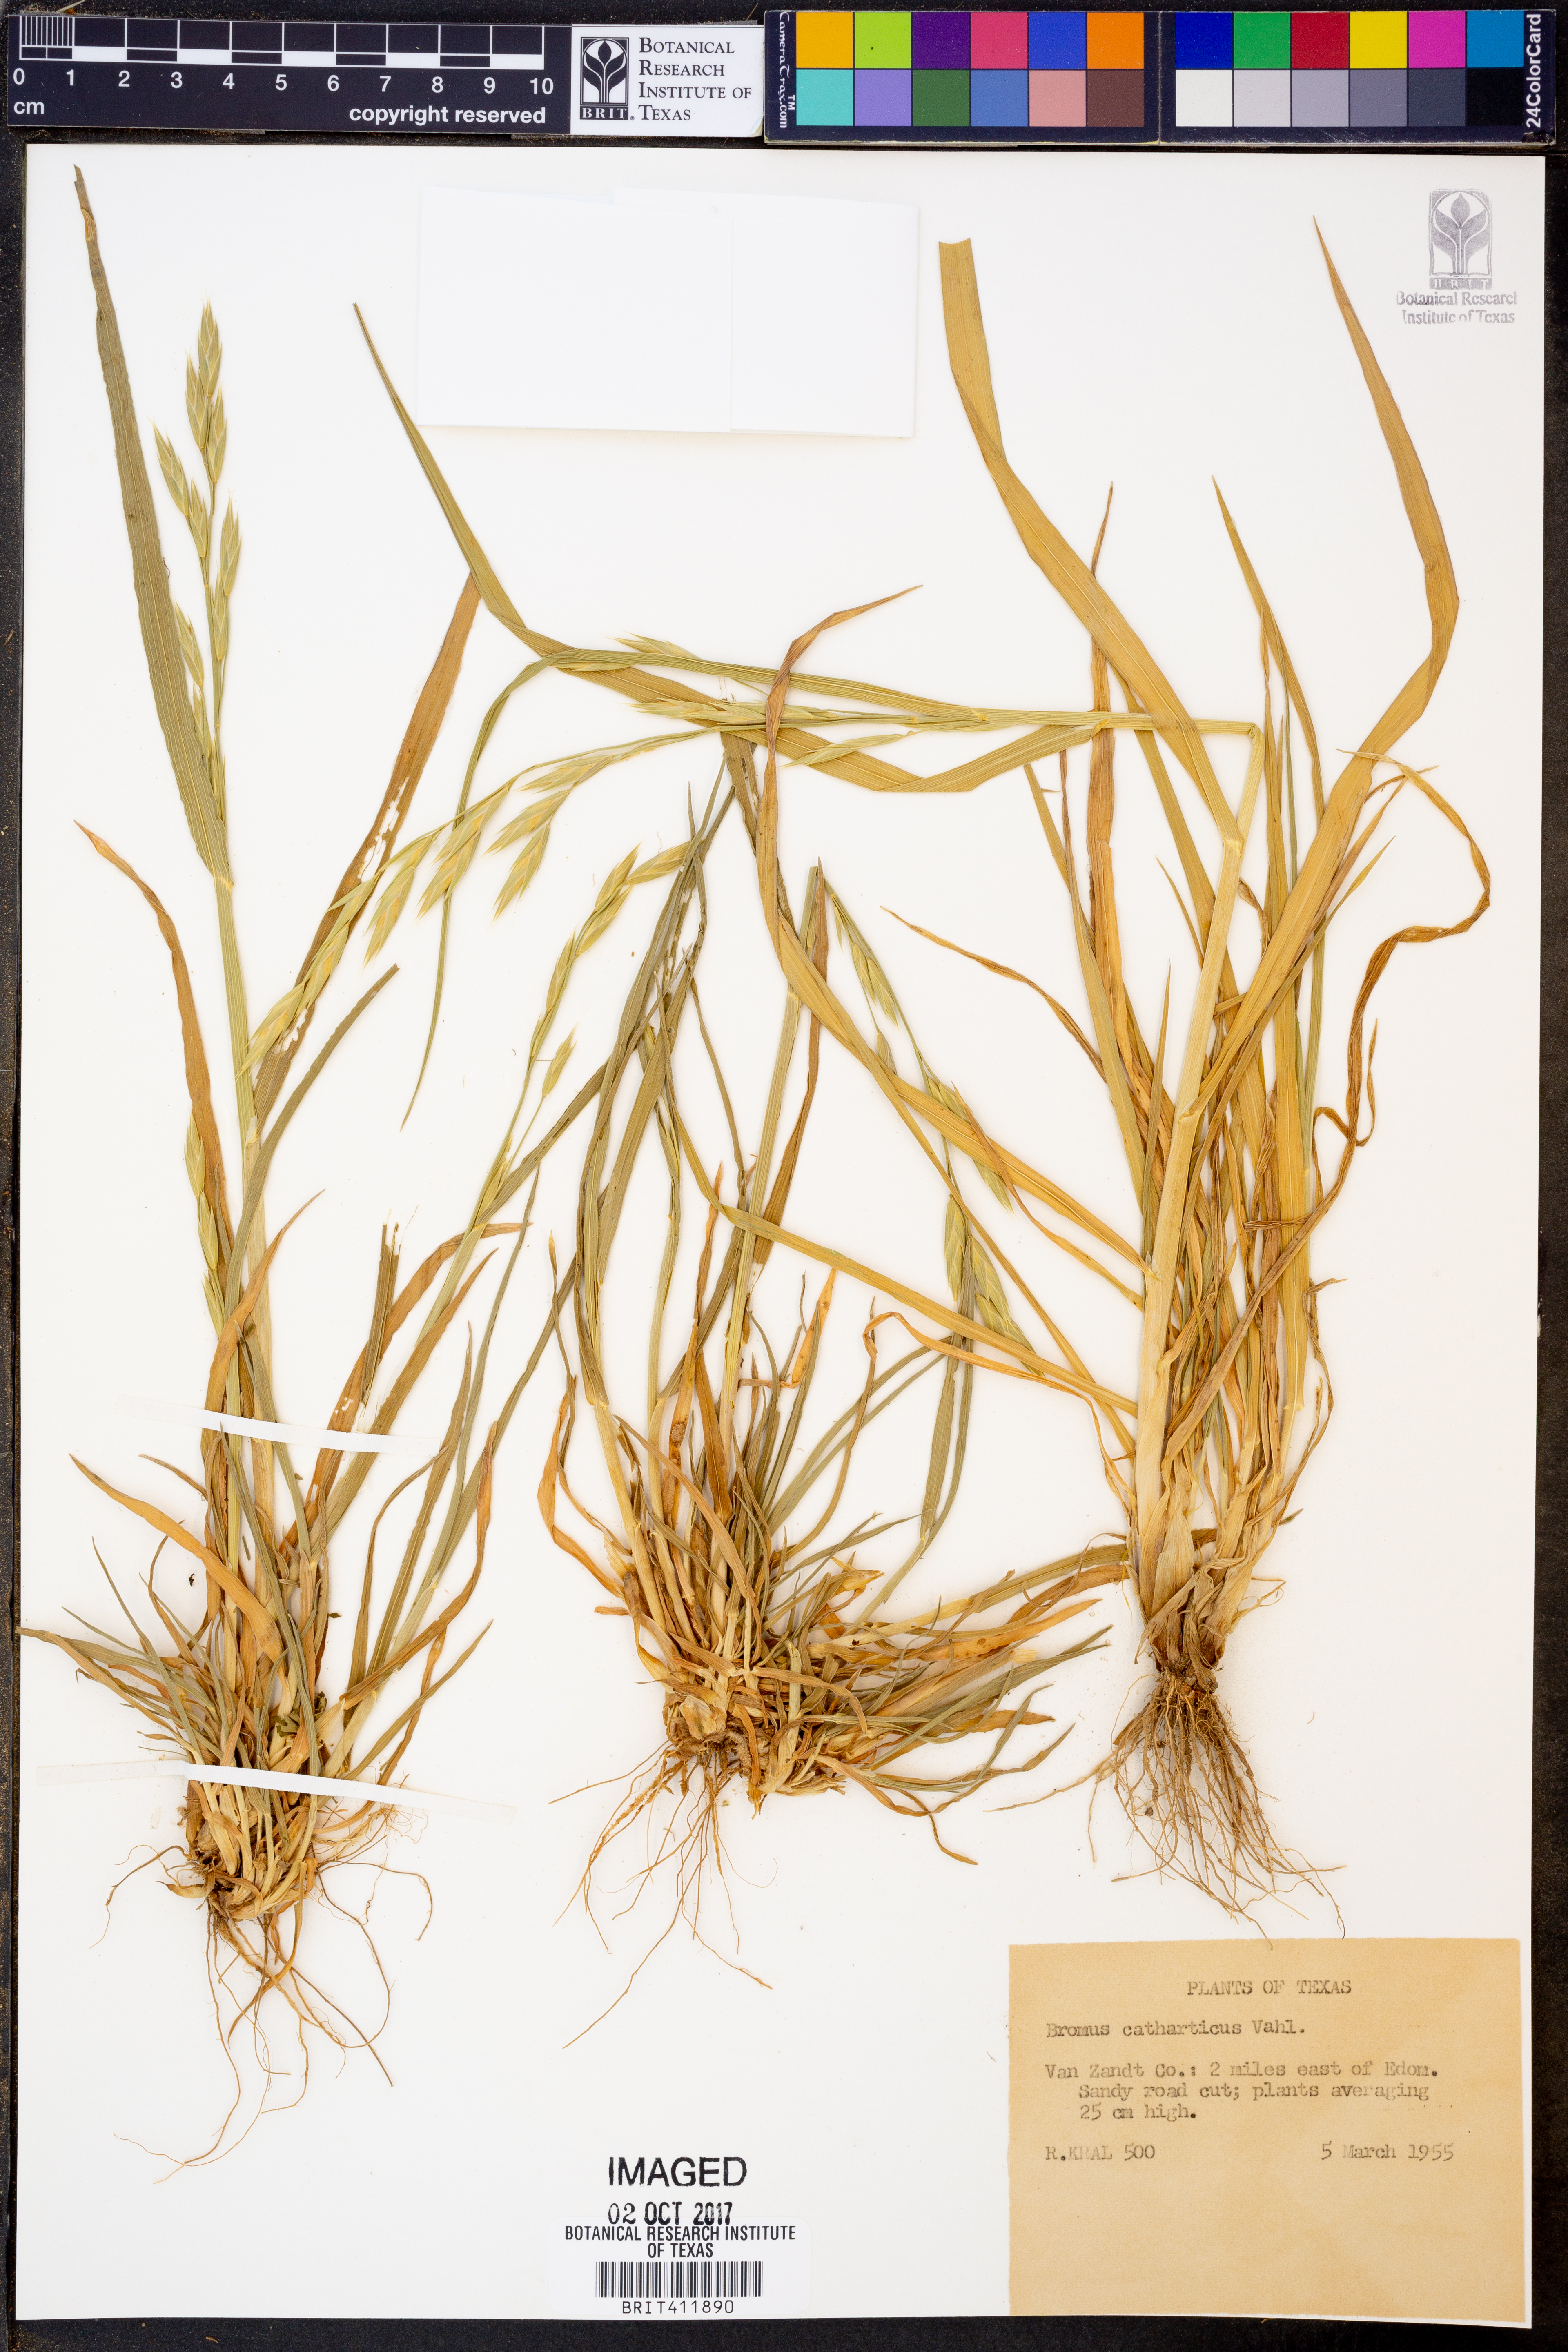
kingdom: Plantae
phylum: Tracheophyta
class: Liliopsida
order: Poales
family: Poaceae
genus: Bromus
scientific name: Bromus catharticus
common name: Rescuegrass
